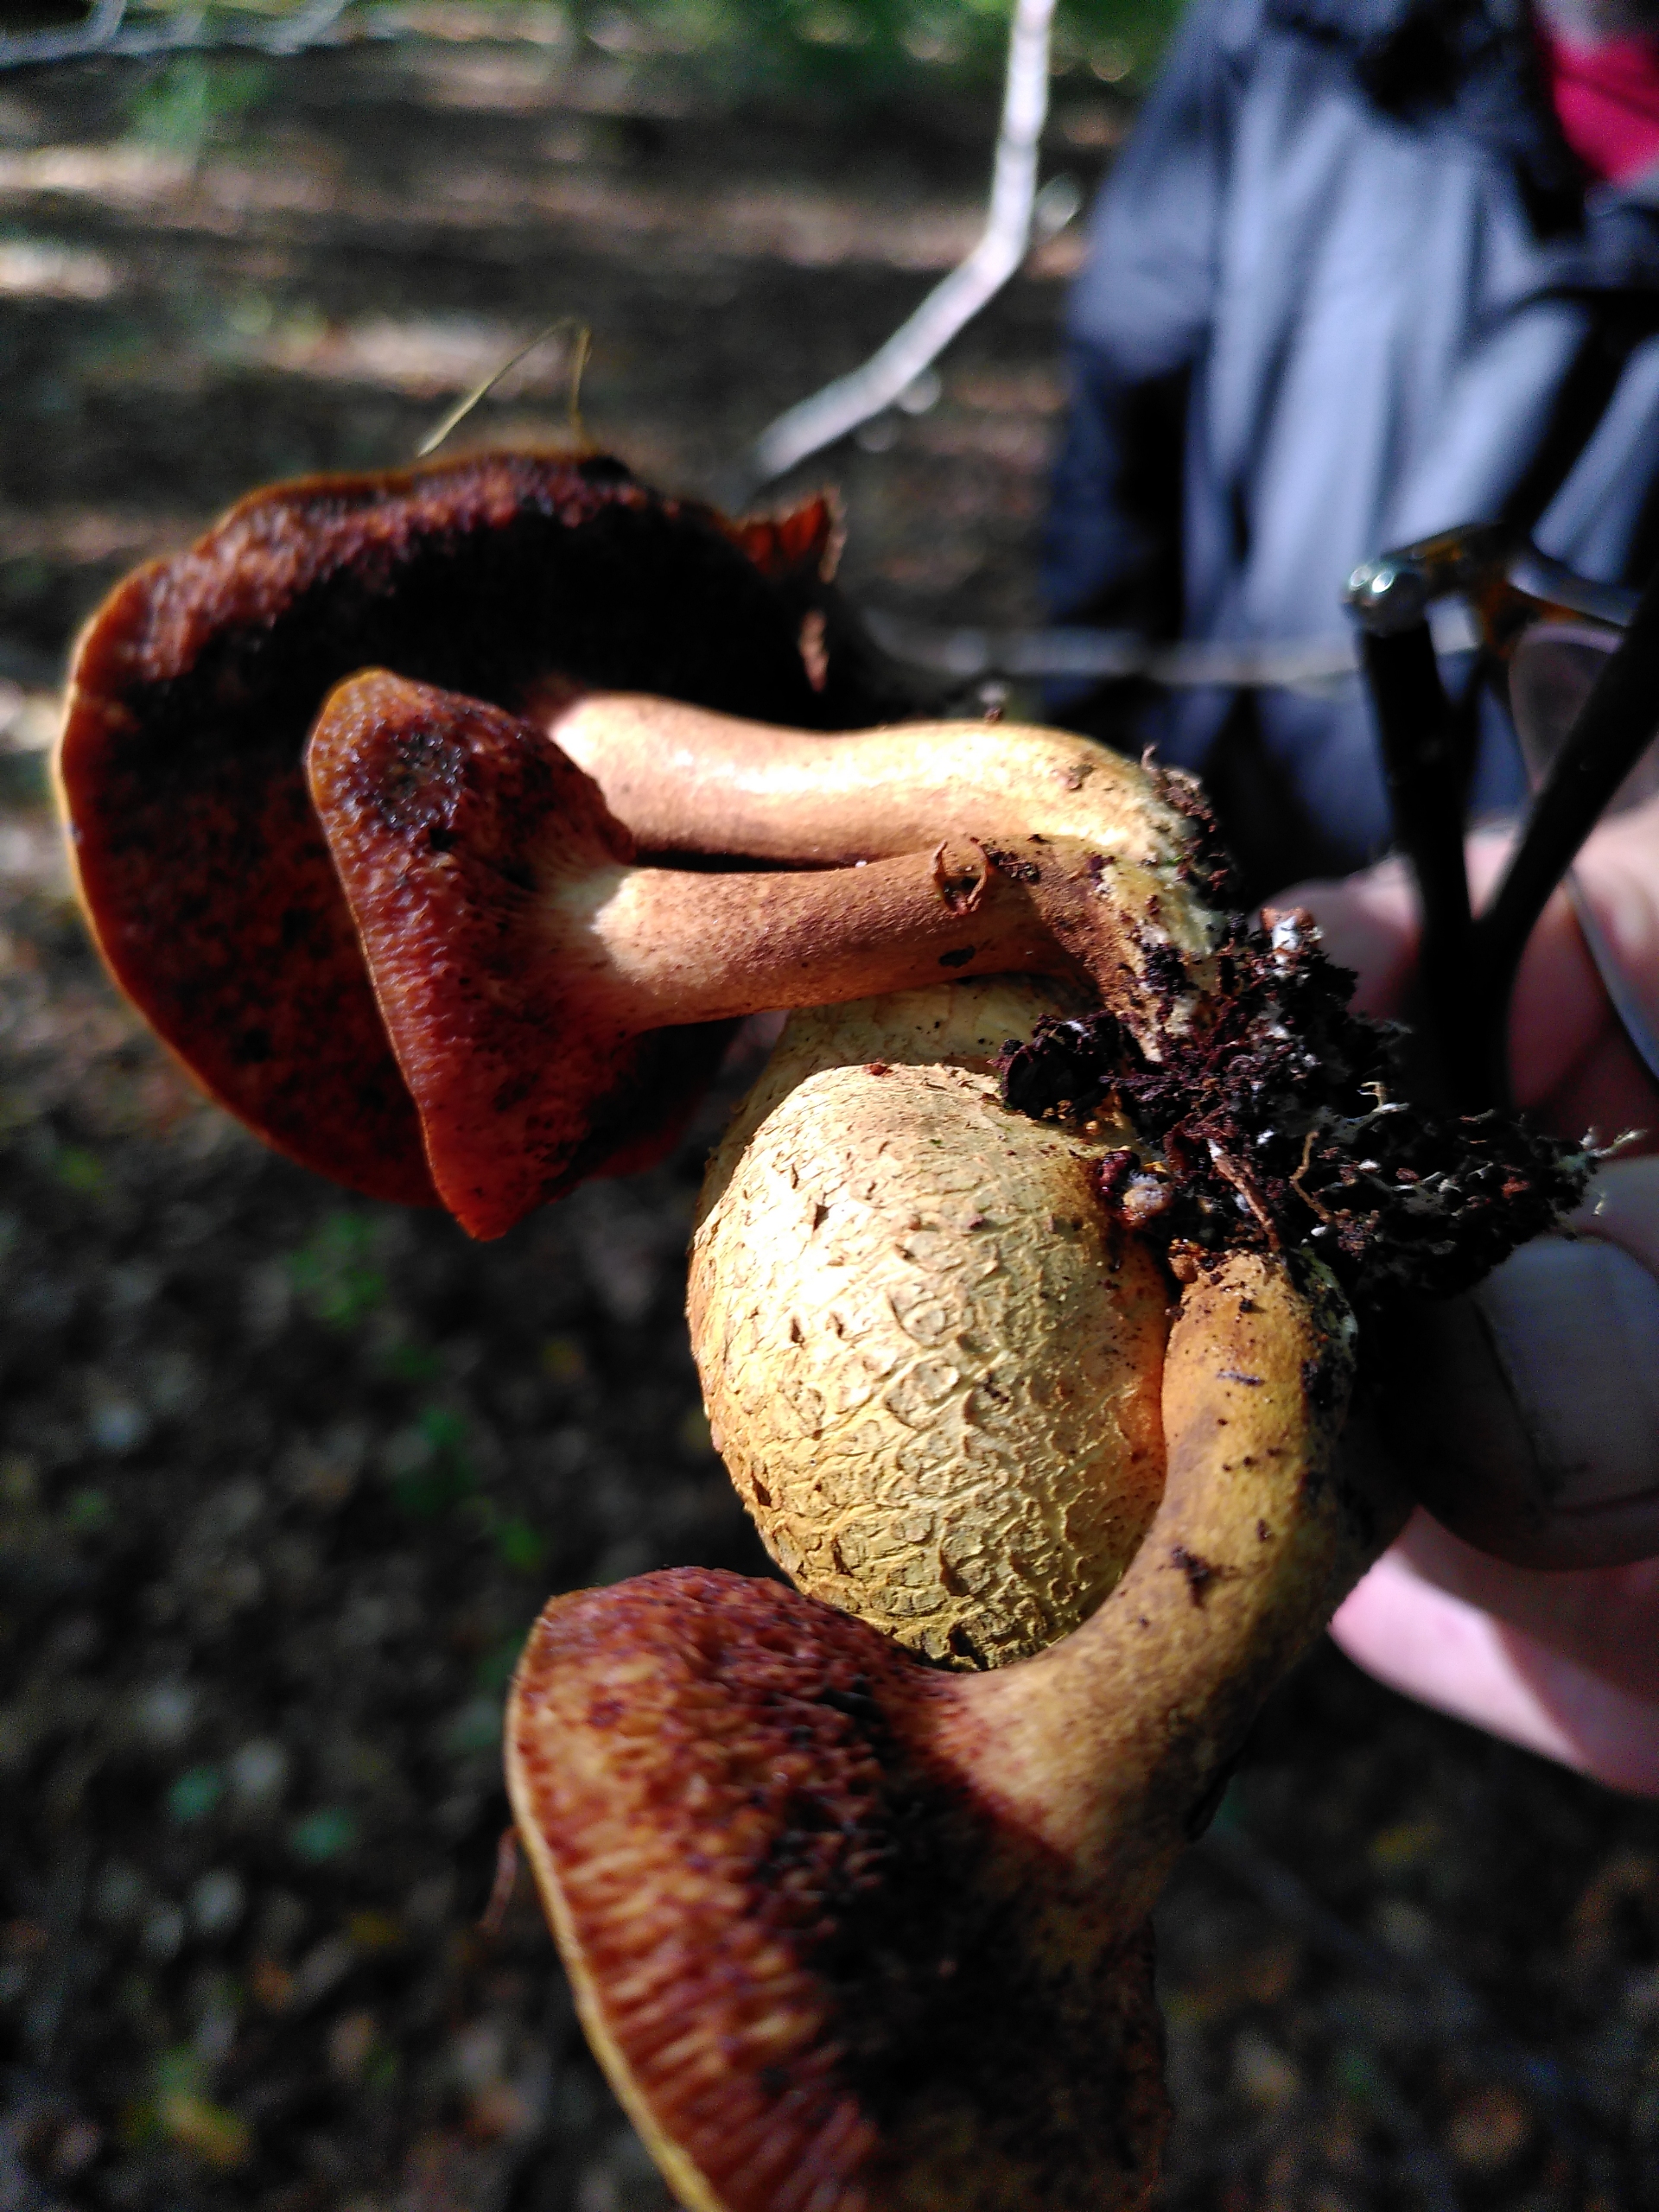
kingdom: Fungi
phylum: Basidiomycota
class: Agaricomycetes
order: Boletales
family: Boletaceae
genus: Pseudoboletus
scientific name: Pseudoboletus parasiticus
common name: Snyltende rørhat
